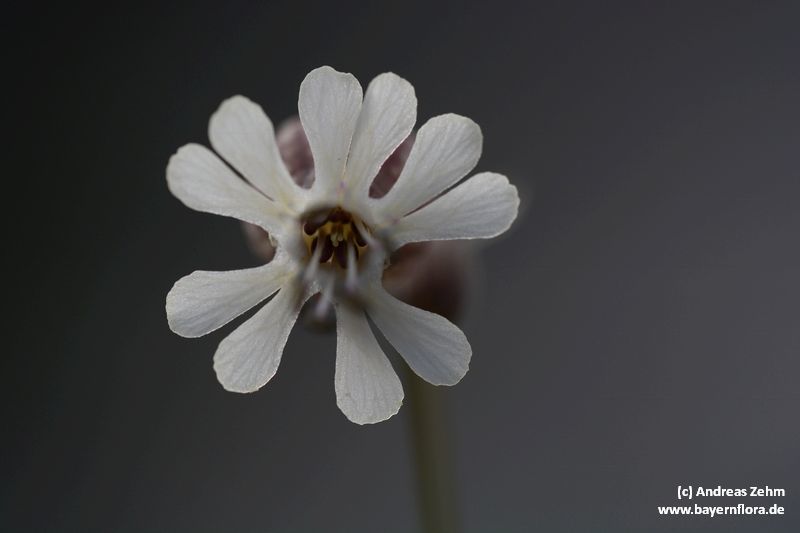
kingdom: Plantae
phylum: Tracheophyta
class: Magnoliopsida
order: Caryophyllales
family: Caryophyllaceae
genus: Silene
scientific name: Silene glareosa
